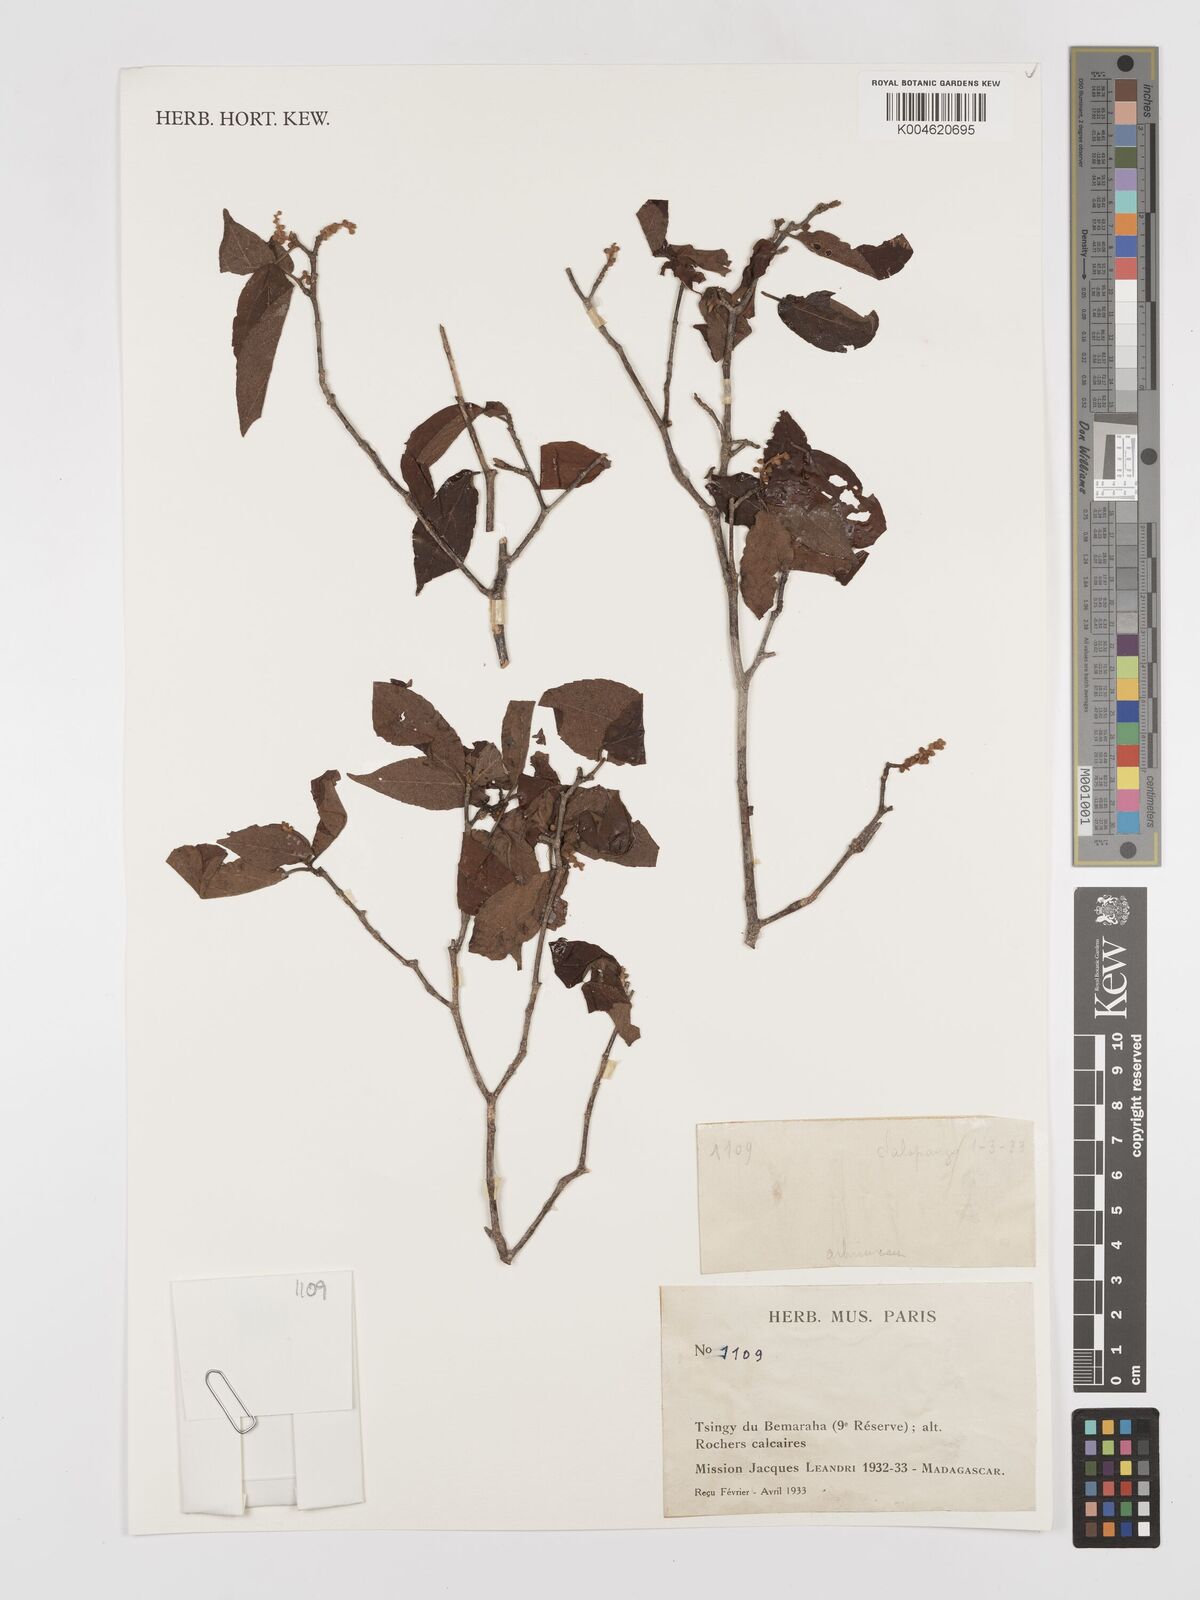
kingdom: Plantae
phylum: Tracheophyta
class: Magnoliopsida
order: Malpighiales
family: Euphorbiaceae
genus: Croton
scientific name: Croton
